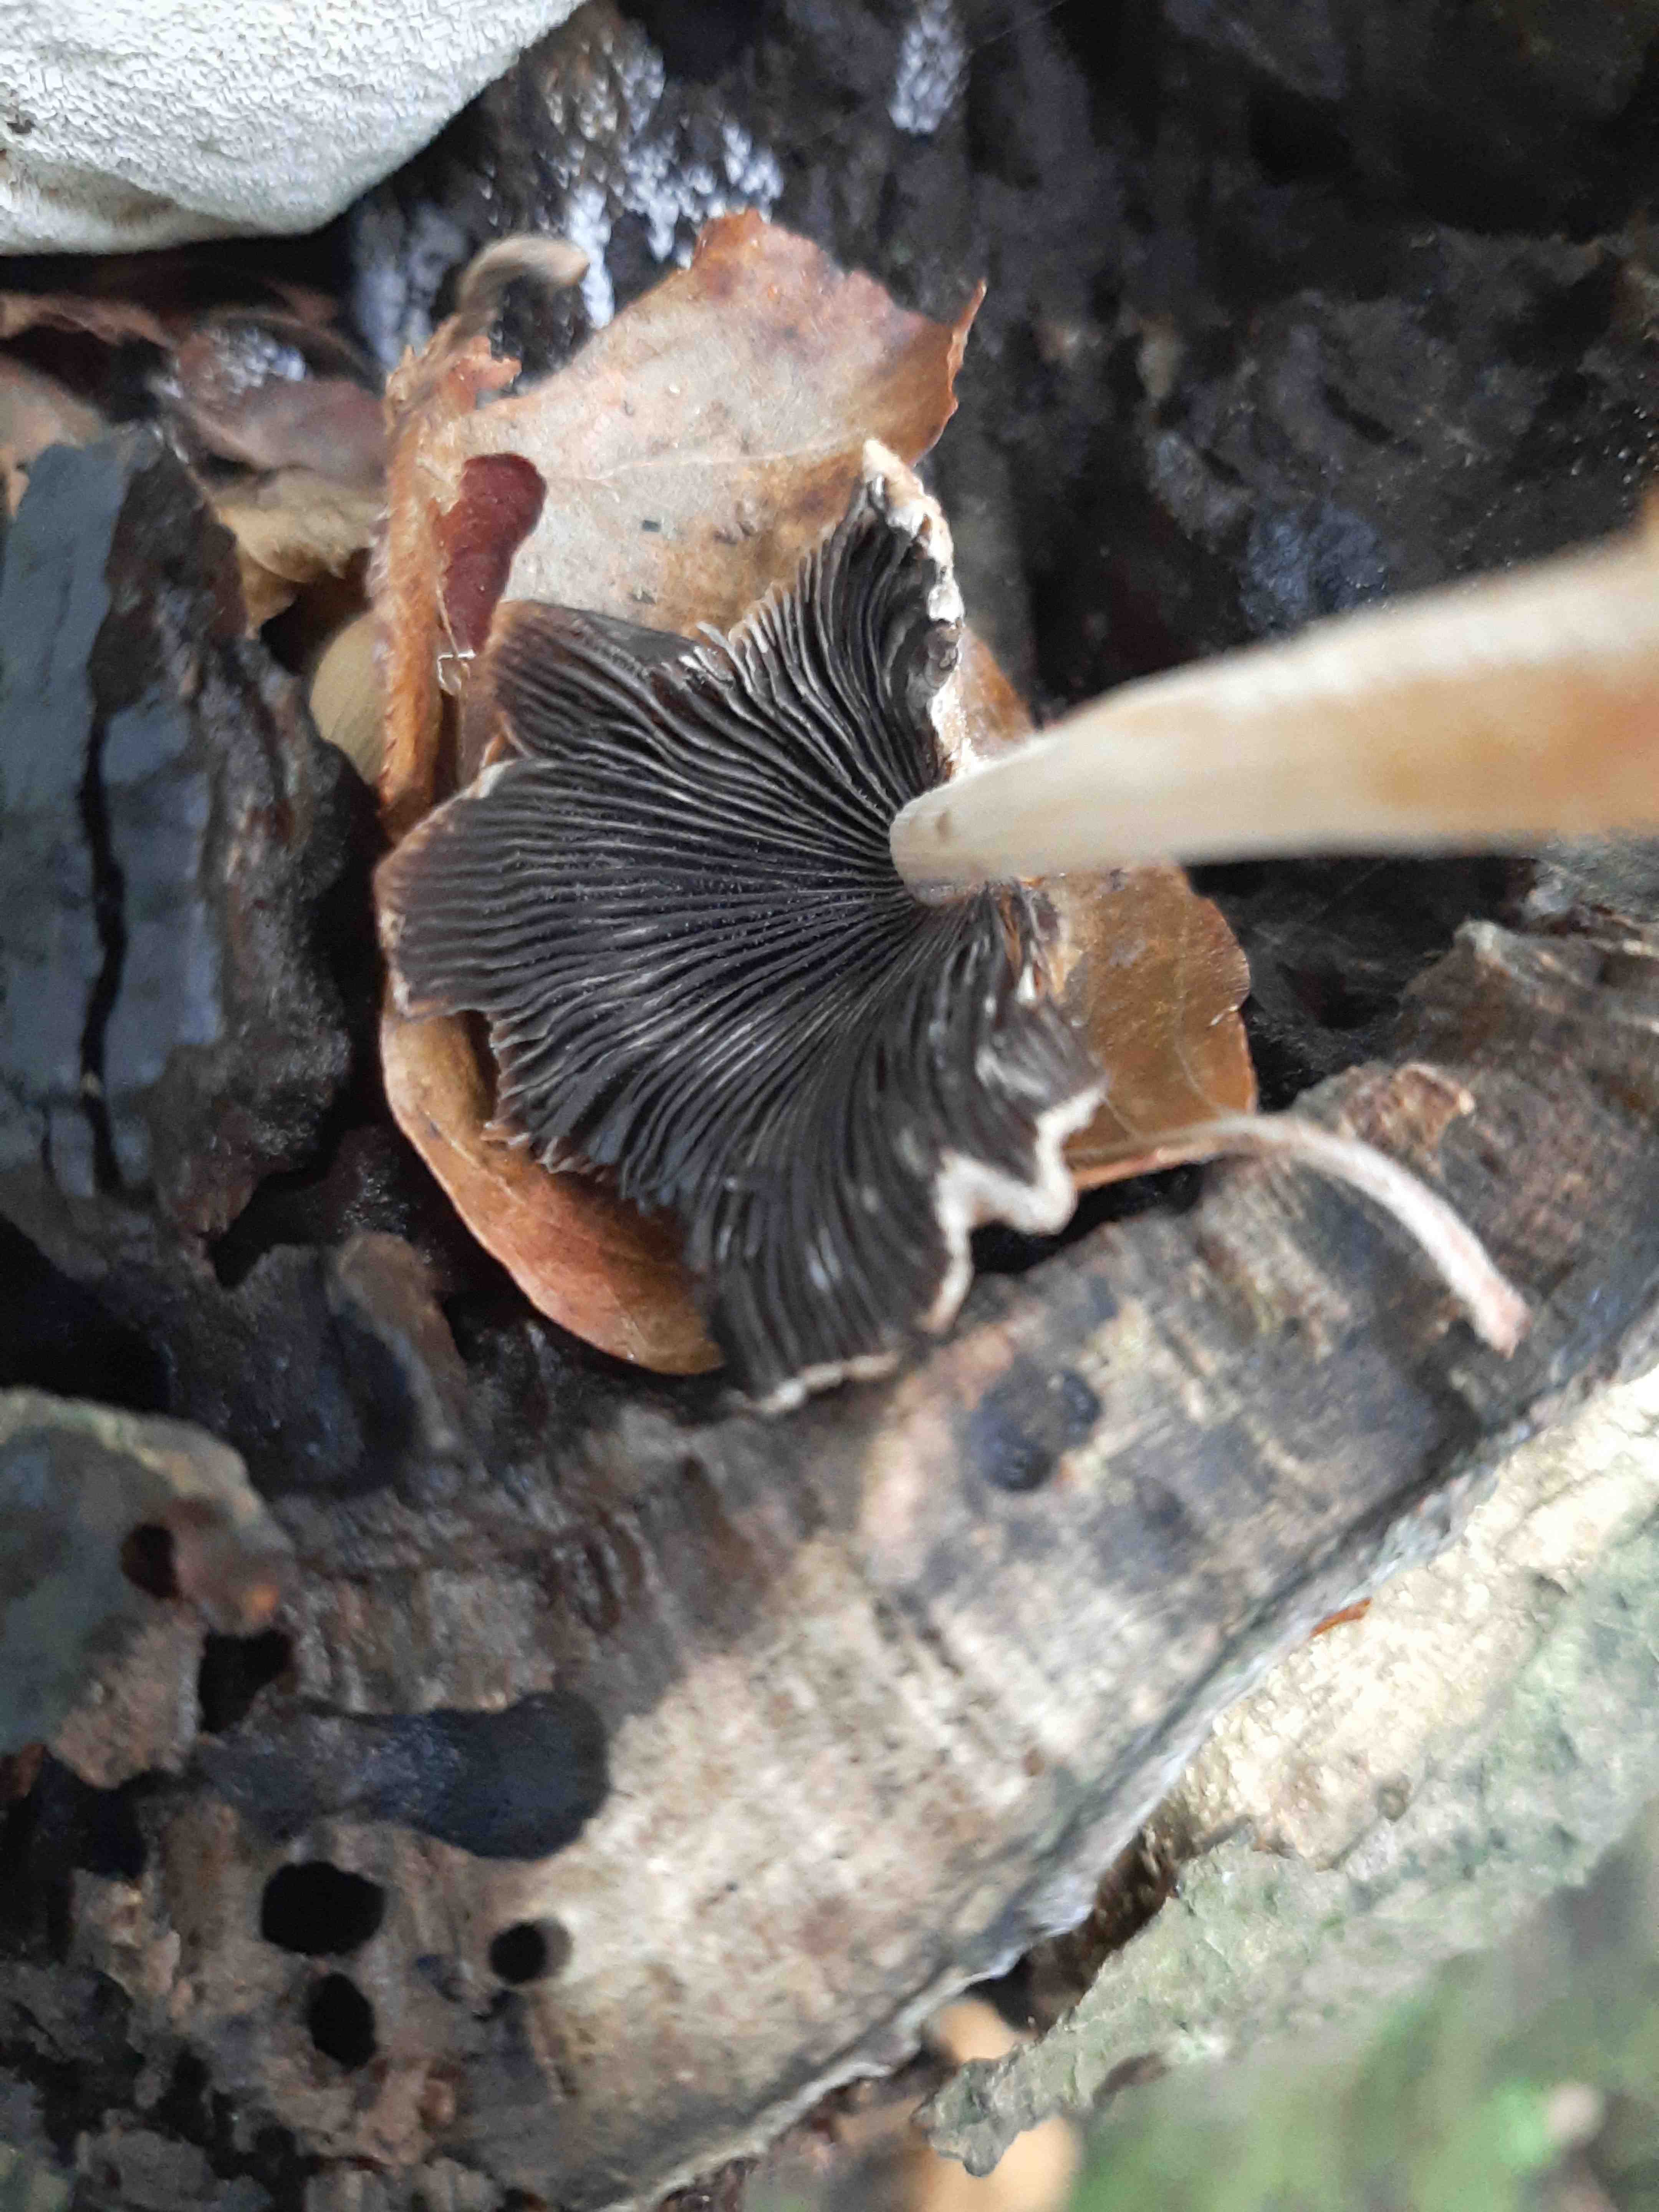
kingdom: Fungi
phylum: Basidiomycota
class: Agaricomycetes
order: Agaricales
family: Psathyrellaceae
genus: Coprinellus
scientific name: Coprinellus micaceus
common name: glimmer-blækhat
